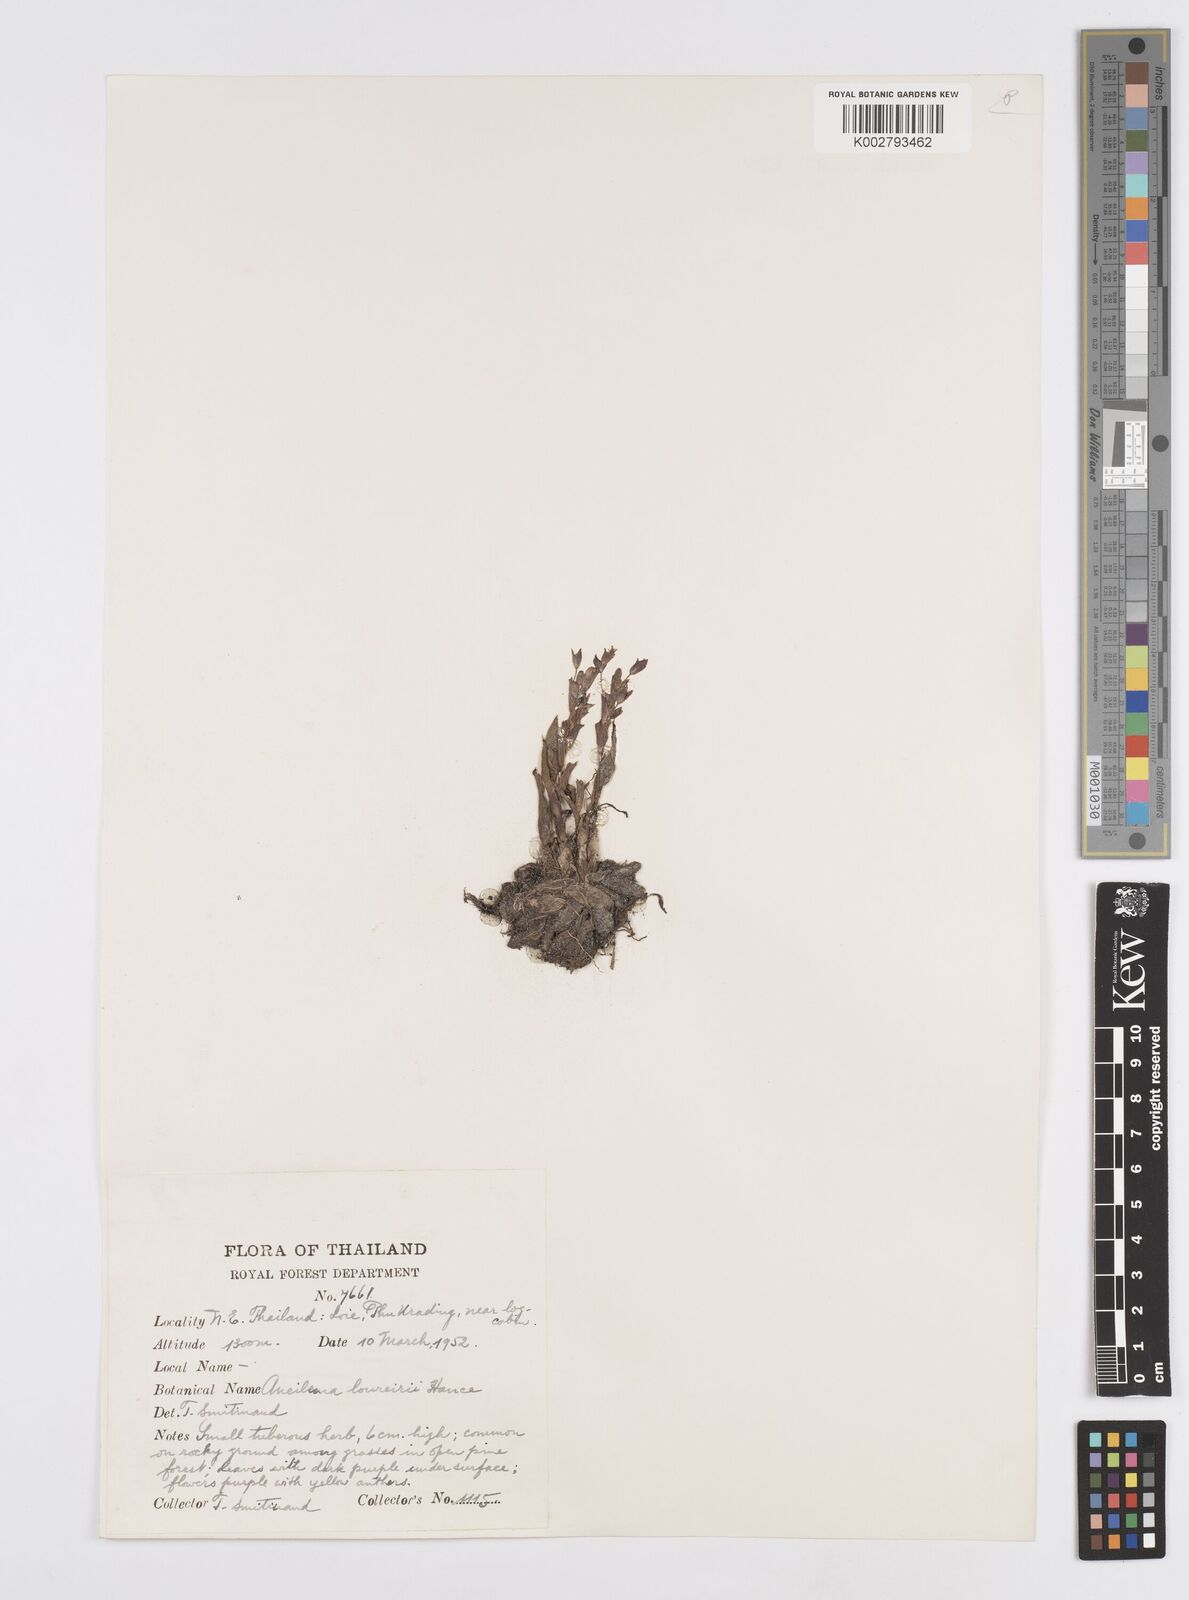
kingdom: Plantae
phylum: Tracheophyta
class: Liliopsida
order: Commelinales
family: Commelinaceae
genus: Murdannia
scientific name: Murdannia edulis
